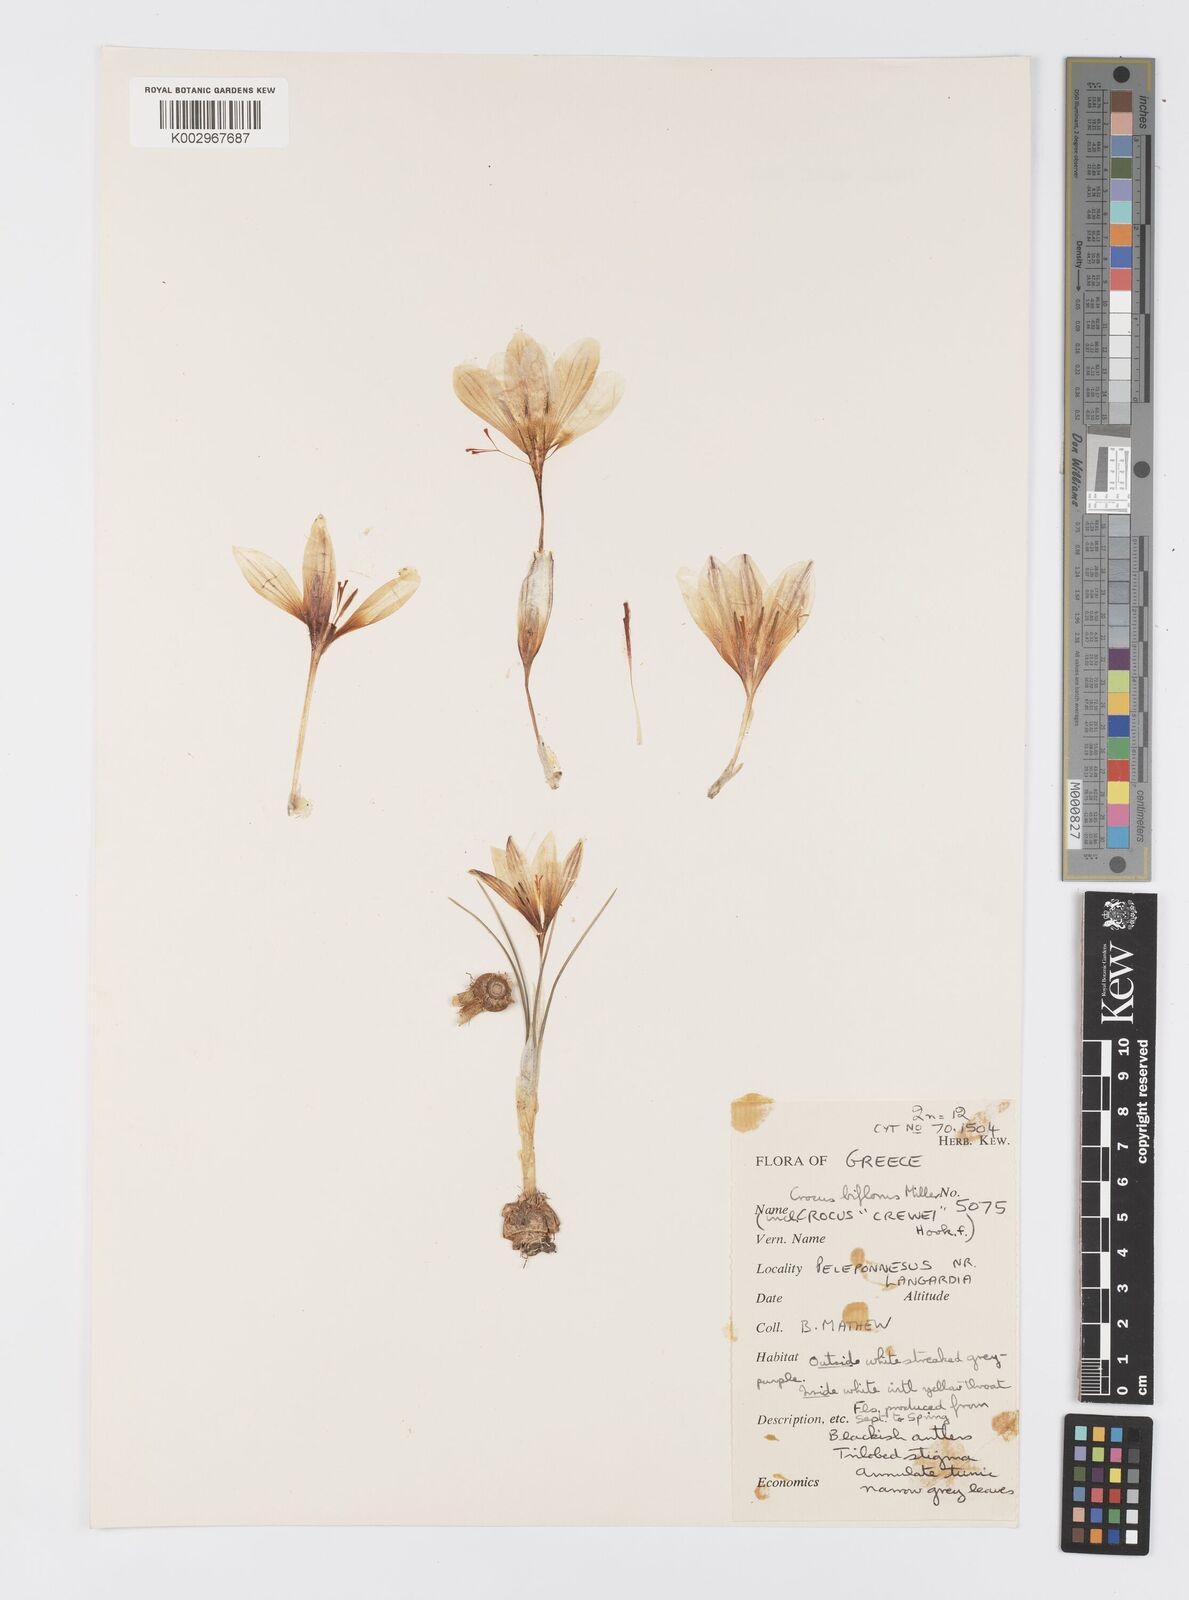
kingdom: Plantae
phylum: Tracheophyta
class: Liliopsida
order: Asparagales
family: Iridaceae
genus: Crocus
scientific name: Crocus melantherus
